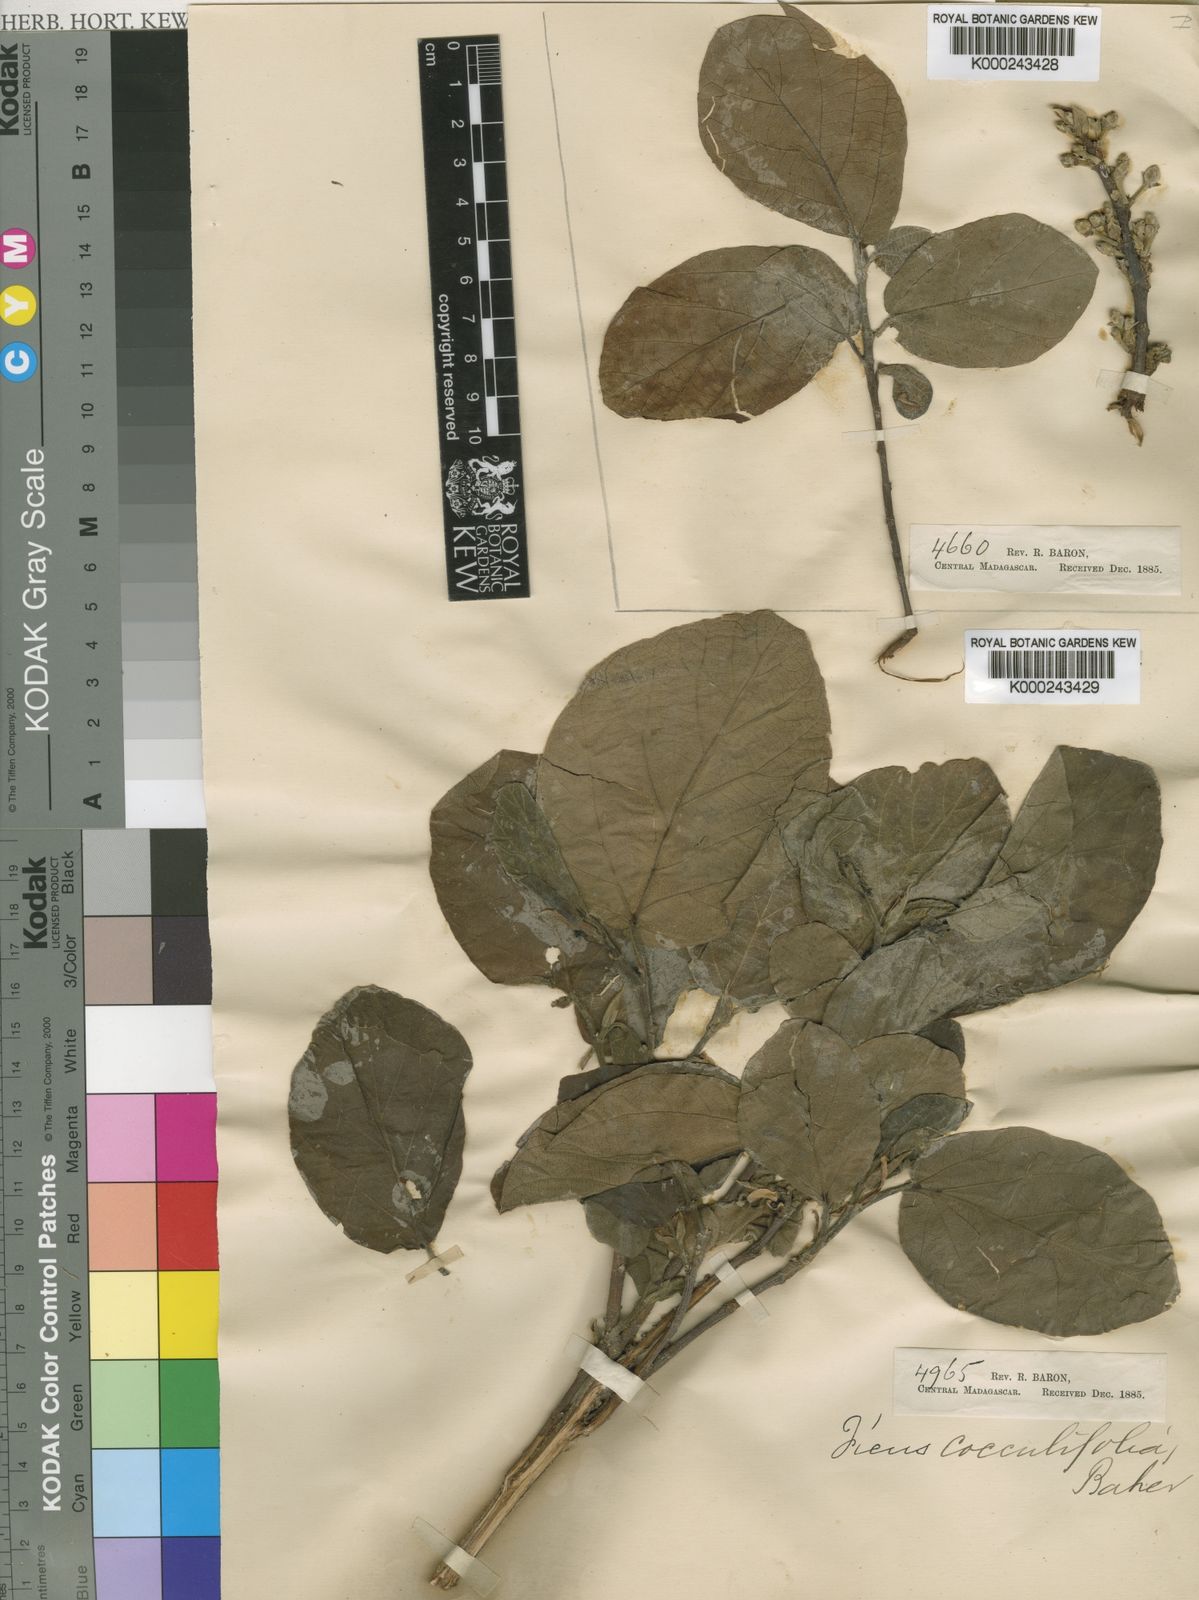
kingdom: Plantae
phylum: Tracheophyta
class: Magnoliopsida
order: Rosales
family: Moraceae
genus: Ficus
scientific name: Ficus sycomorus
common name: Sycomore
